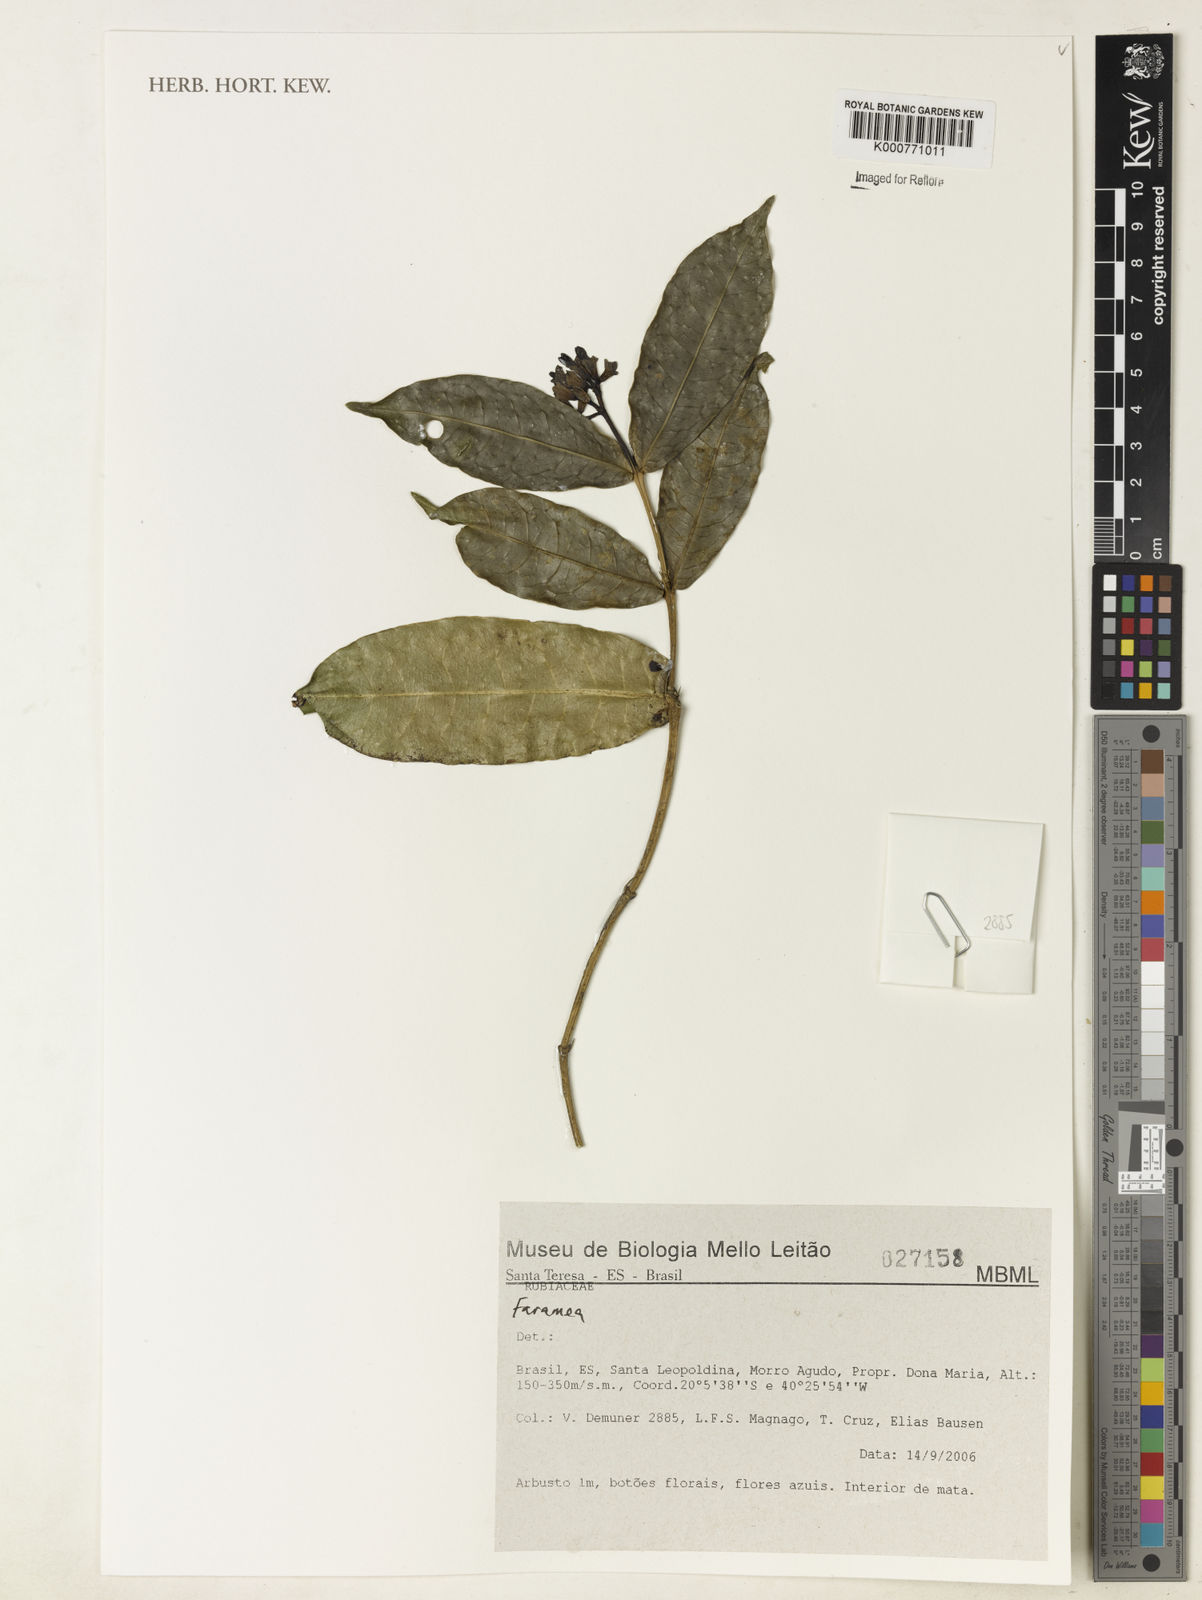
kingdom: Plantae
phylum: Tracheophyta
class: Magnoliopsida
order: Gentianales
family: Rubiaceae
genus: Faramea
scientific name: Faramea
